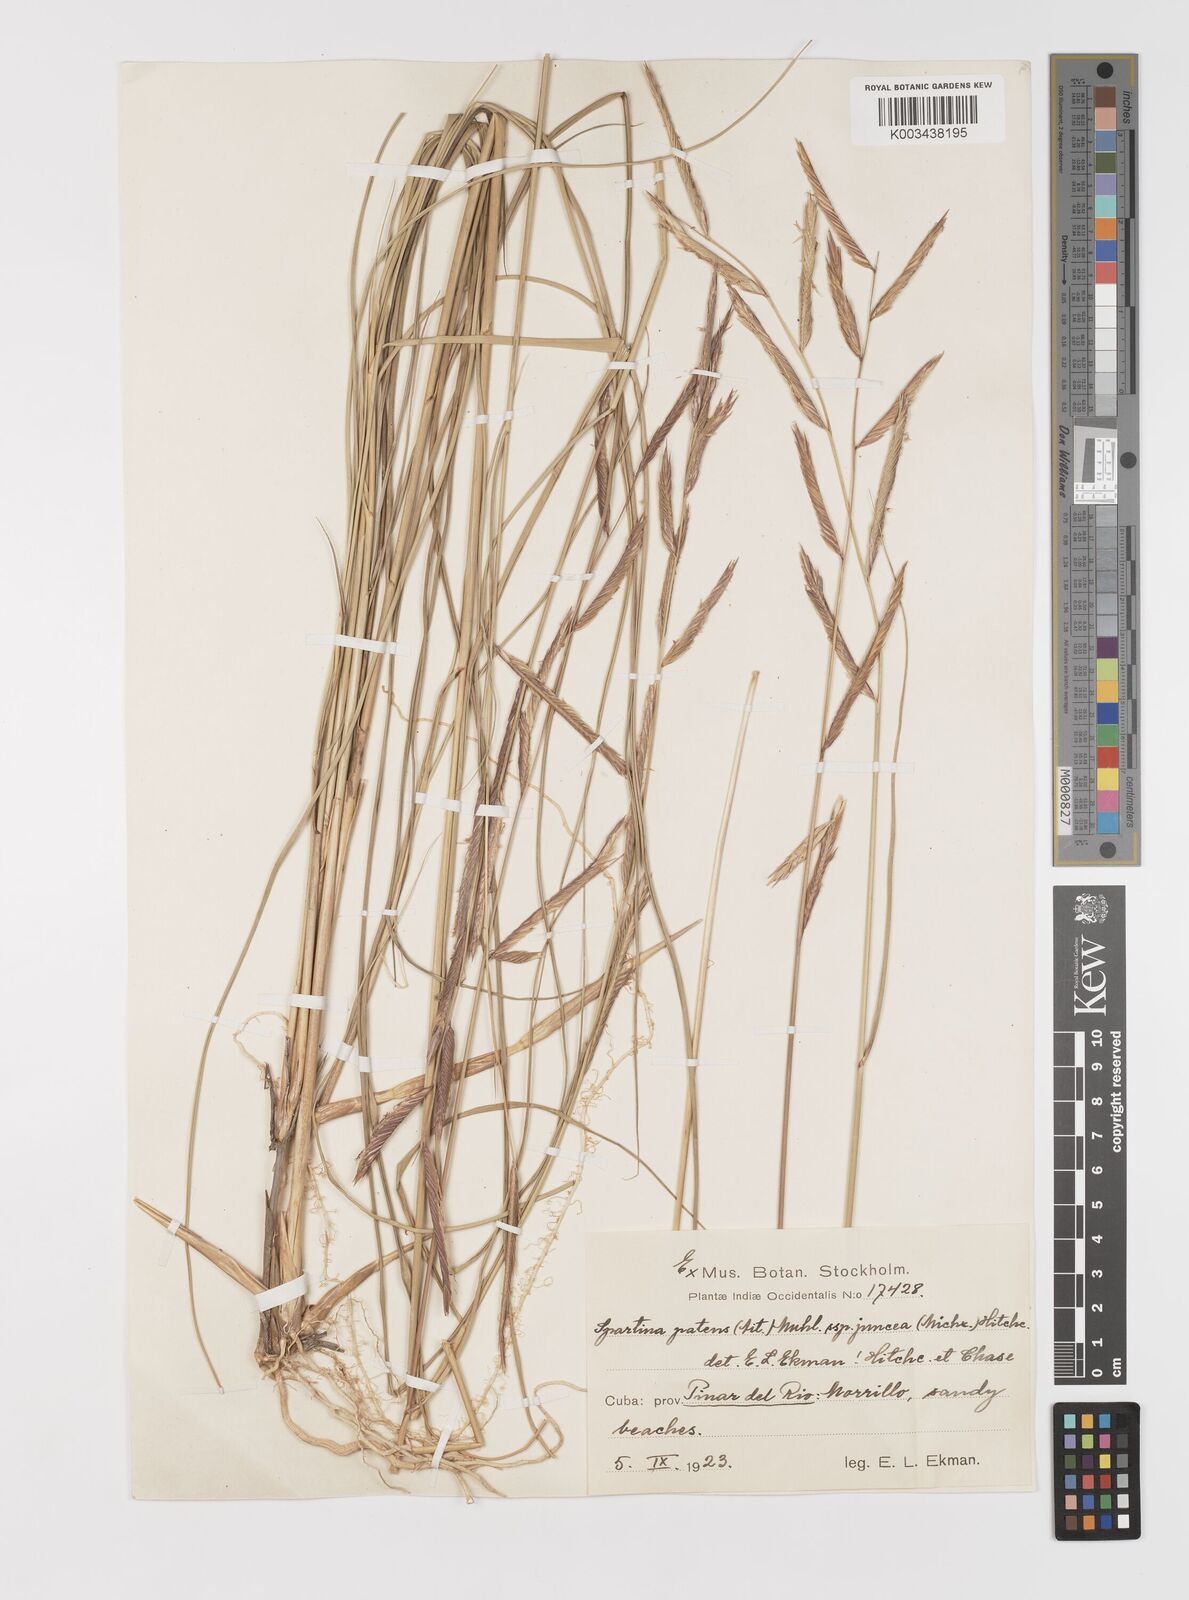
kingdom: Plantae
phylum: Tracheophyta
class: Liliopsida
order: Poales
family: Poaceae
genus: Sporobolus
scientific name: Sporobolus pumilus
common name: Highwater grass
